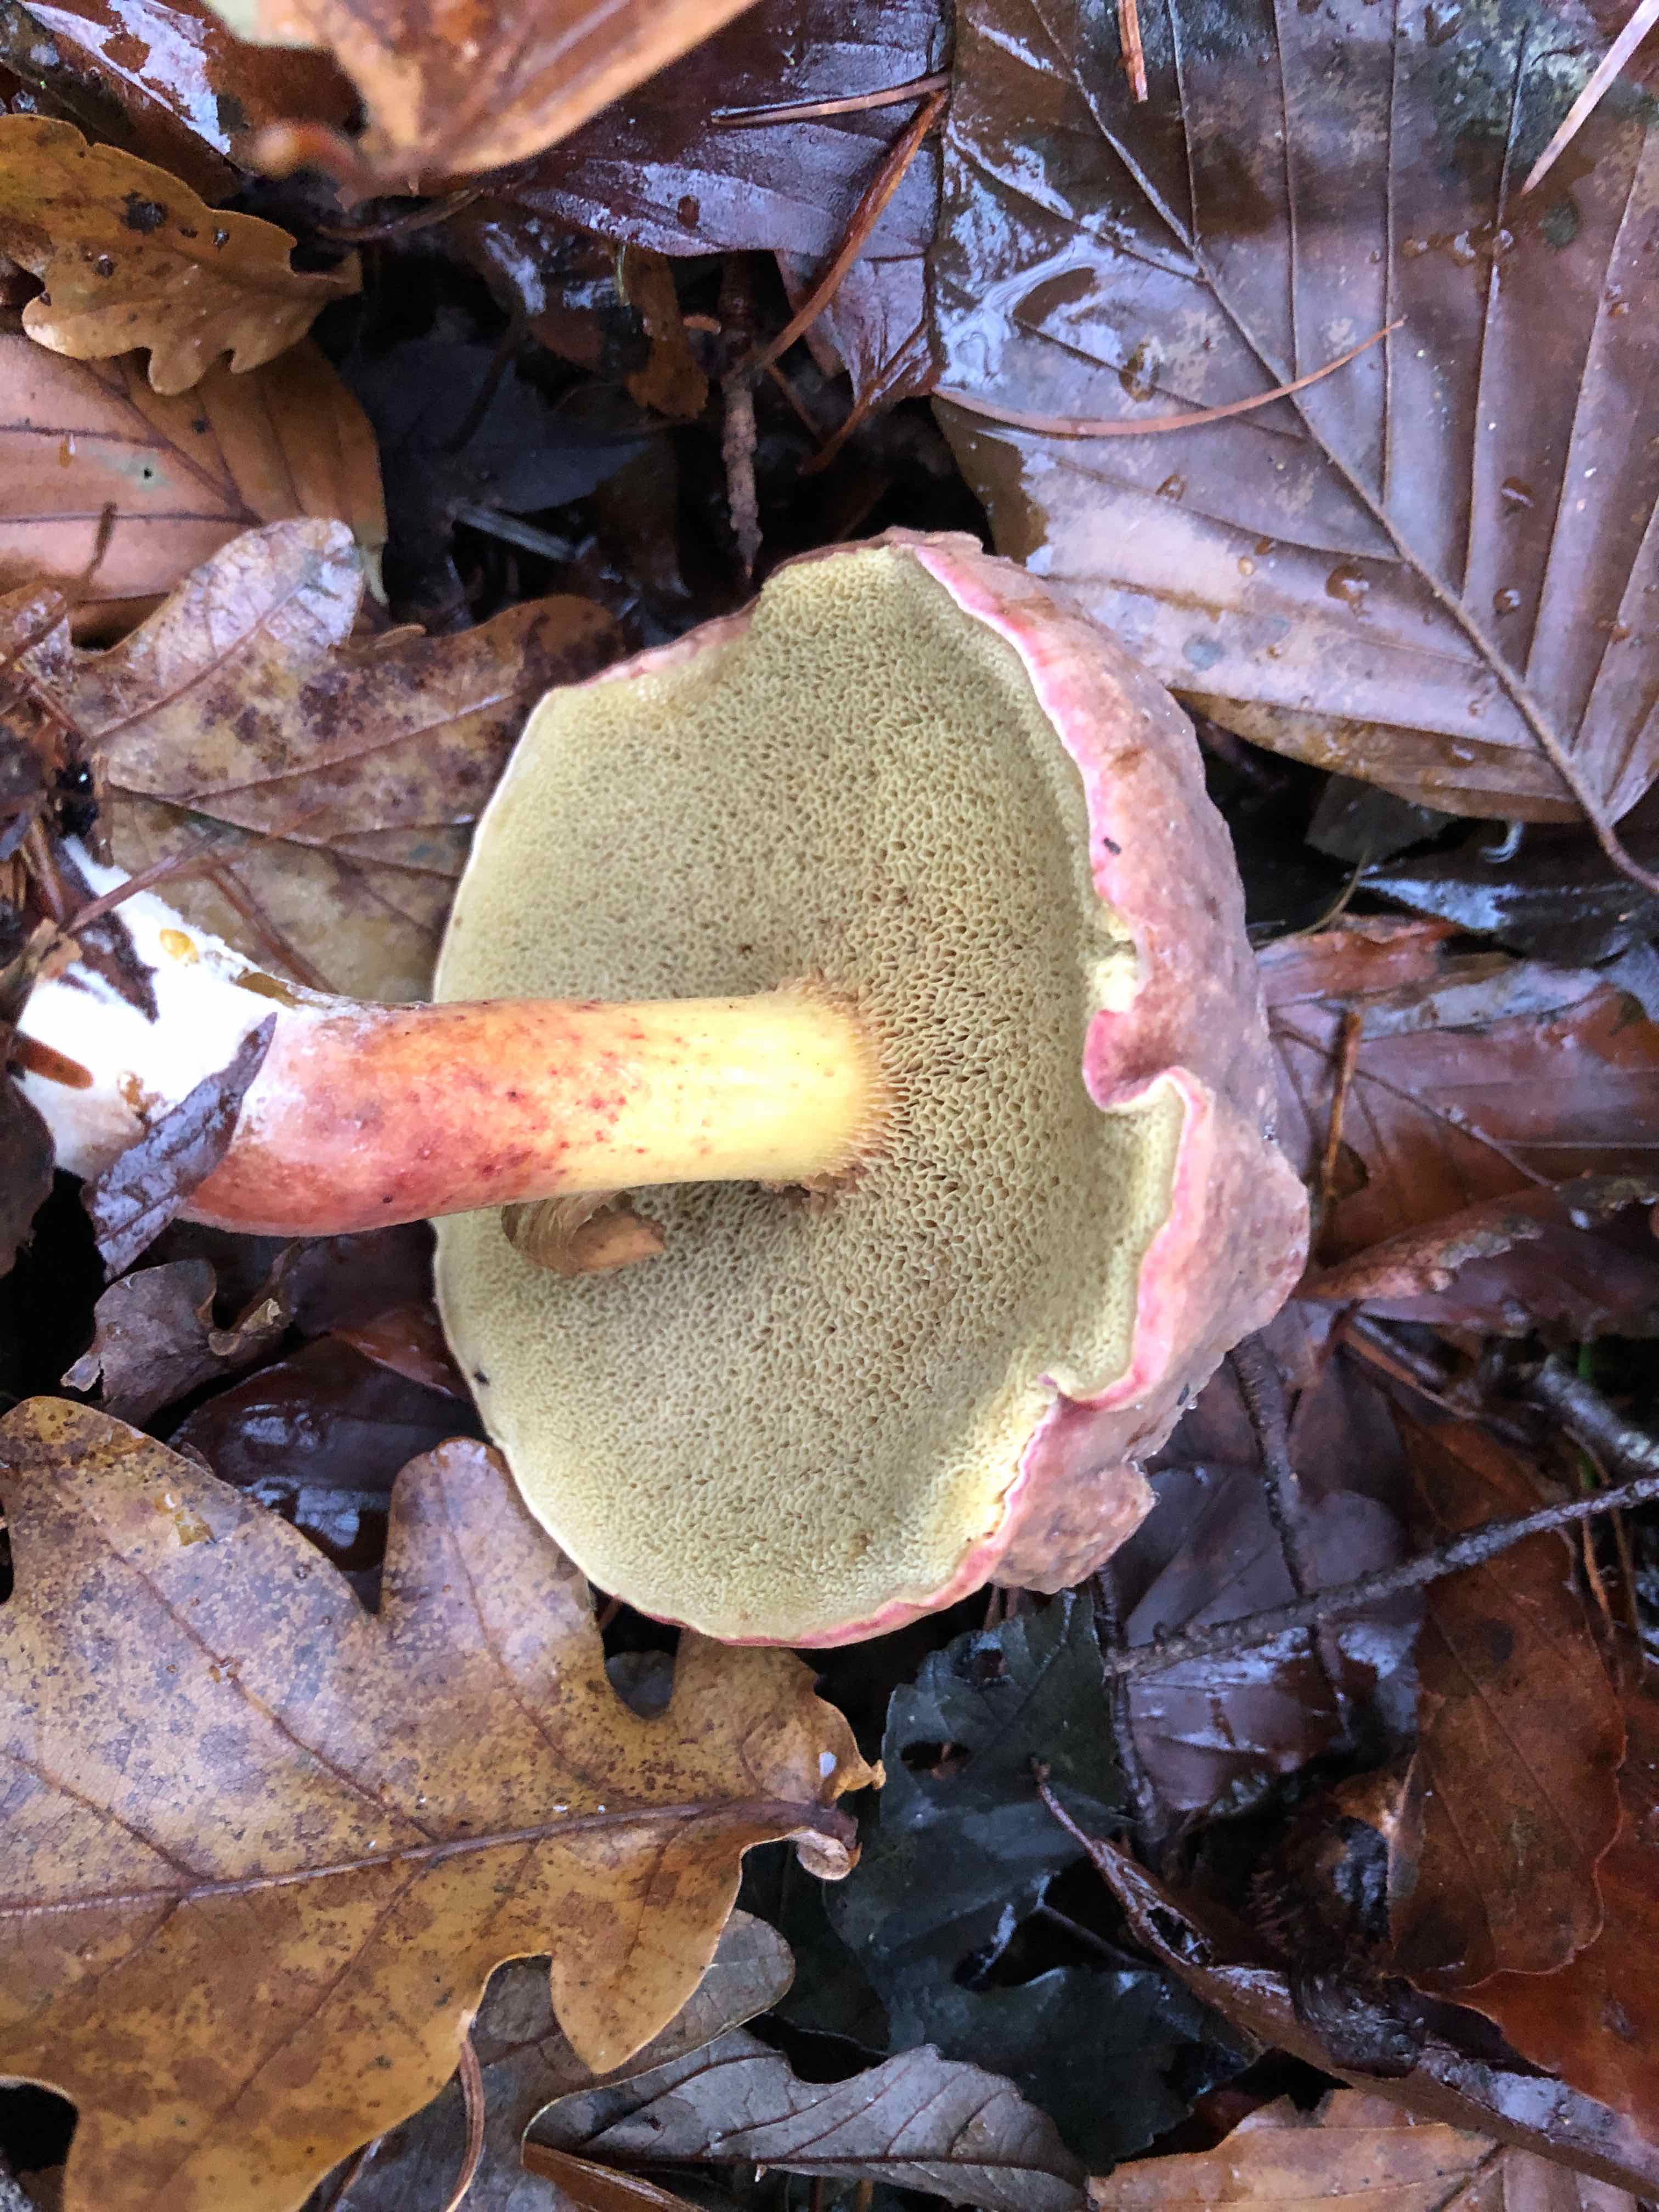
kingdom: Fungi
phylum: Basidiomycota
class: Agaricomycetes
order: Boletales
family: Boletaceae
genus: Xerocomellus
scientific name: Xerocomellus pruinatus
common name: dugget rørhat
